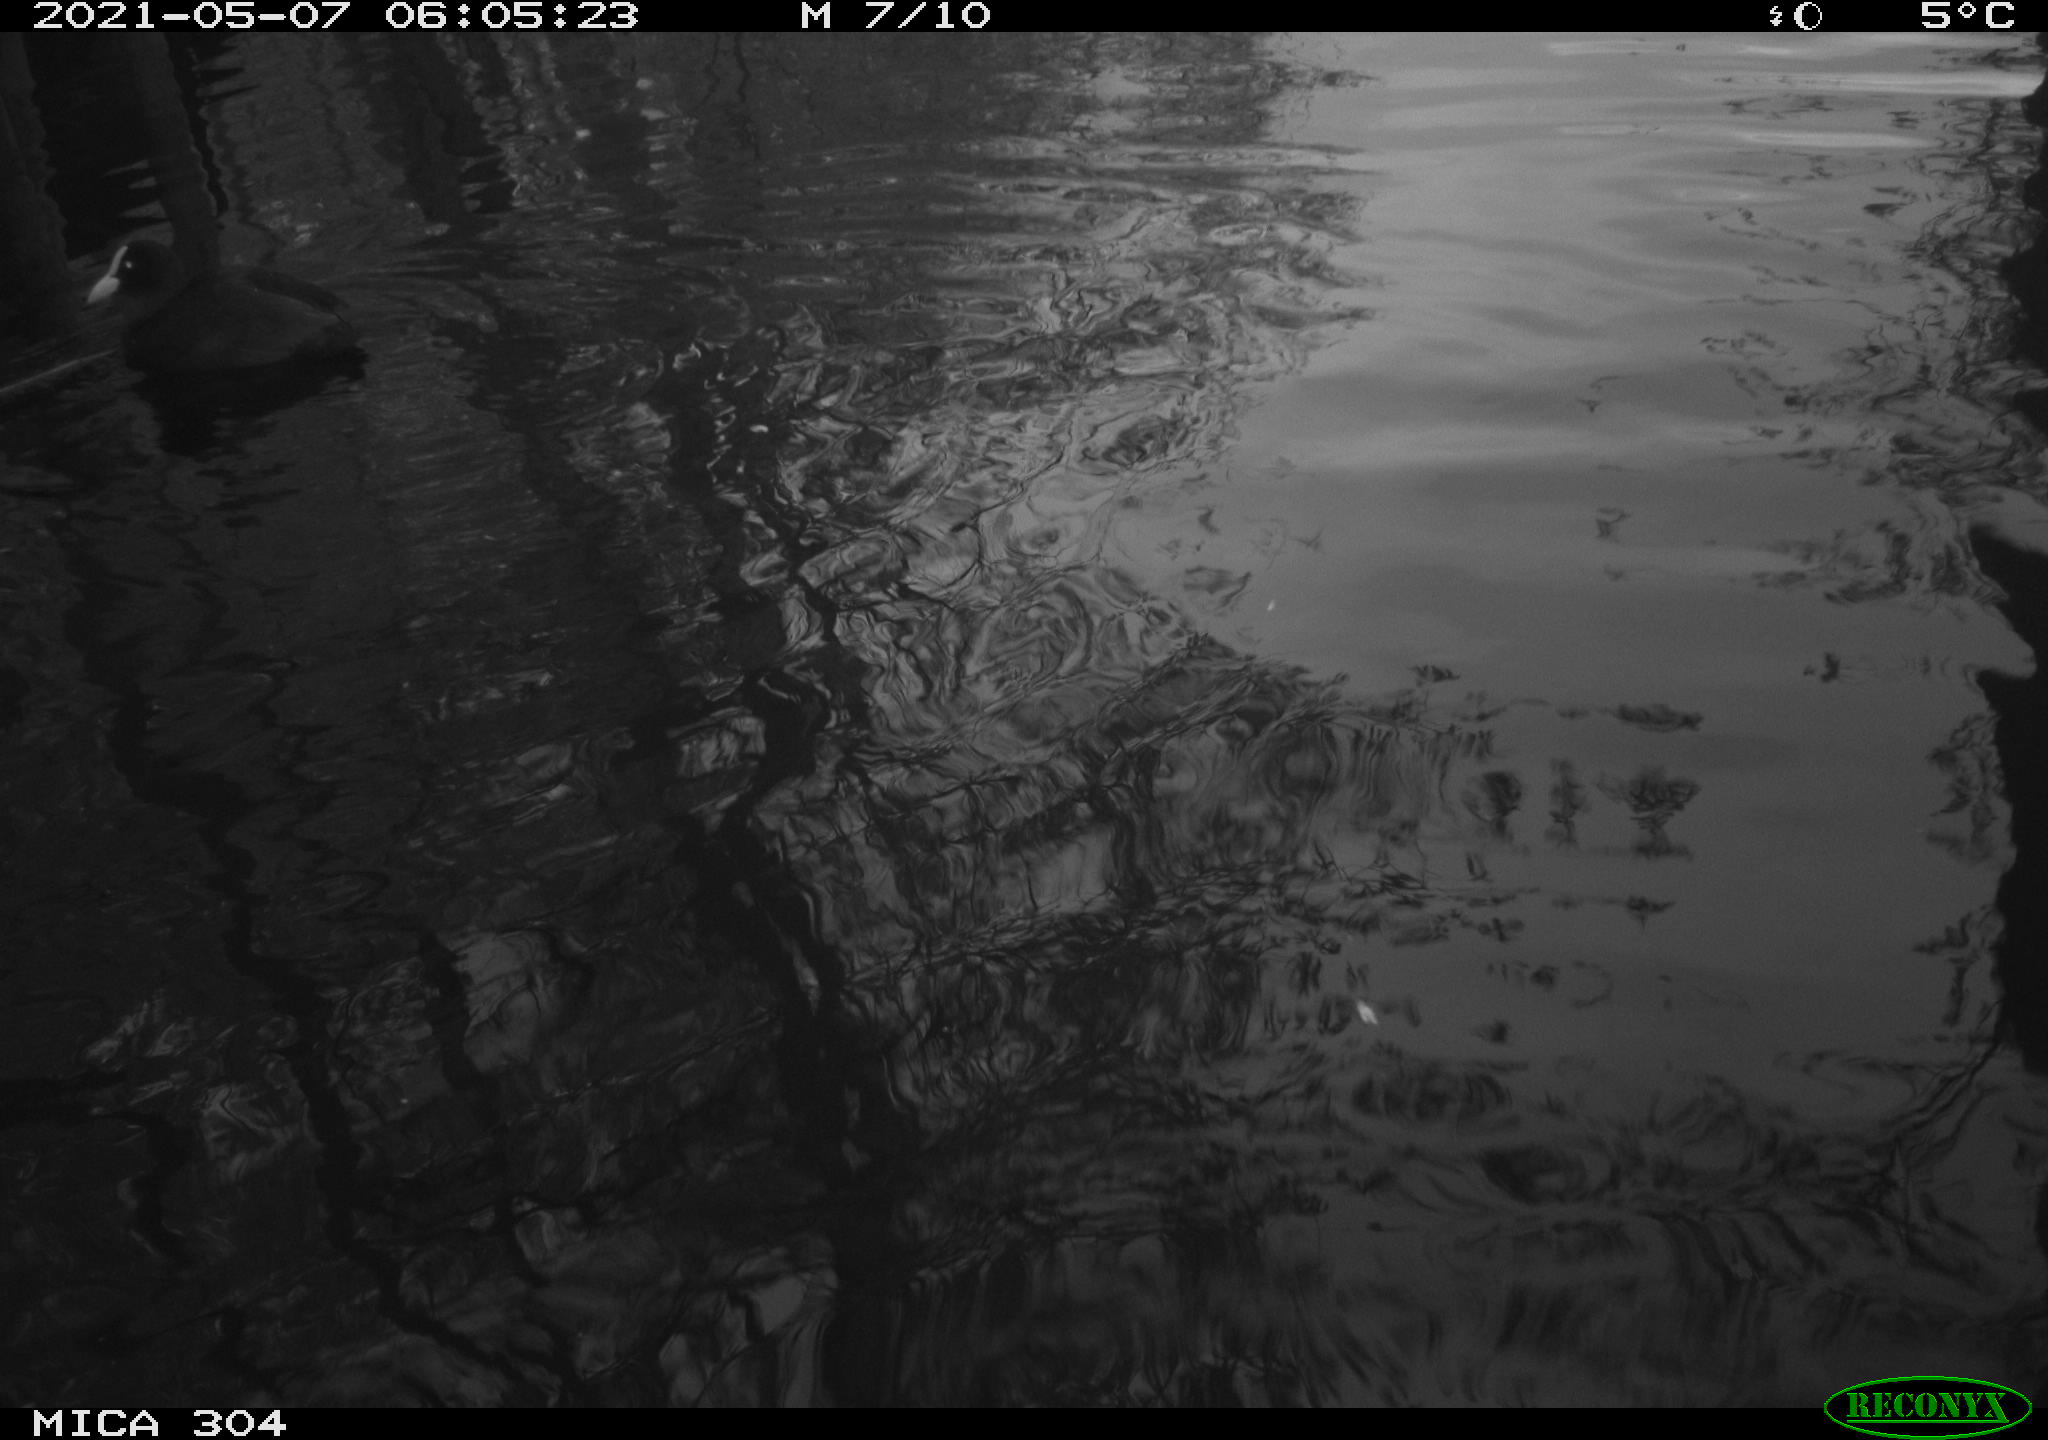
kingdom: Animalia
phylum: Chordata
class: Aves
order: Gruiformes
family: Rallidae
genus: Fulica
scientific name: Fulica atra
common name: Eurasian coot
